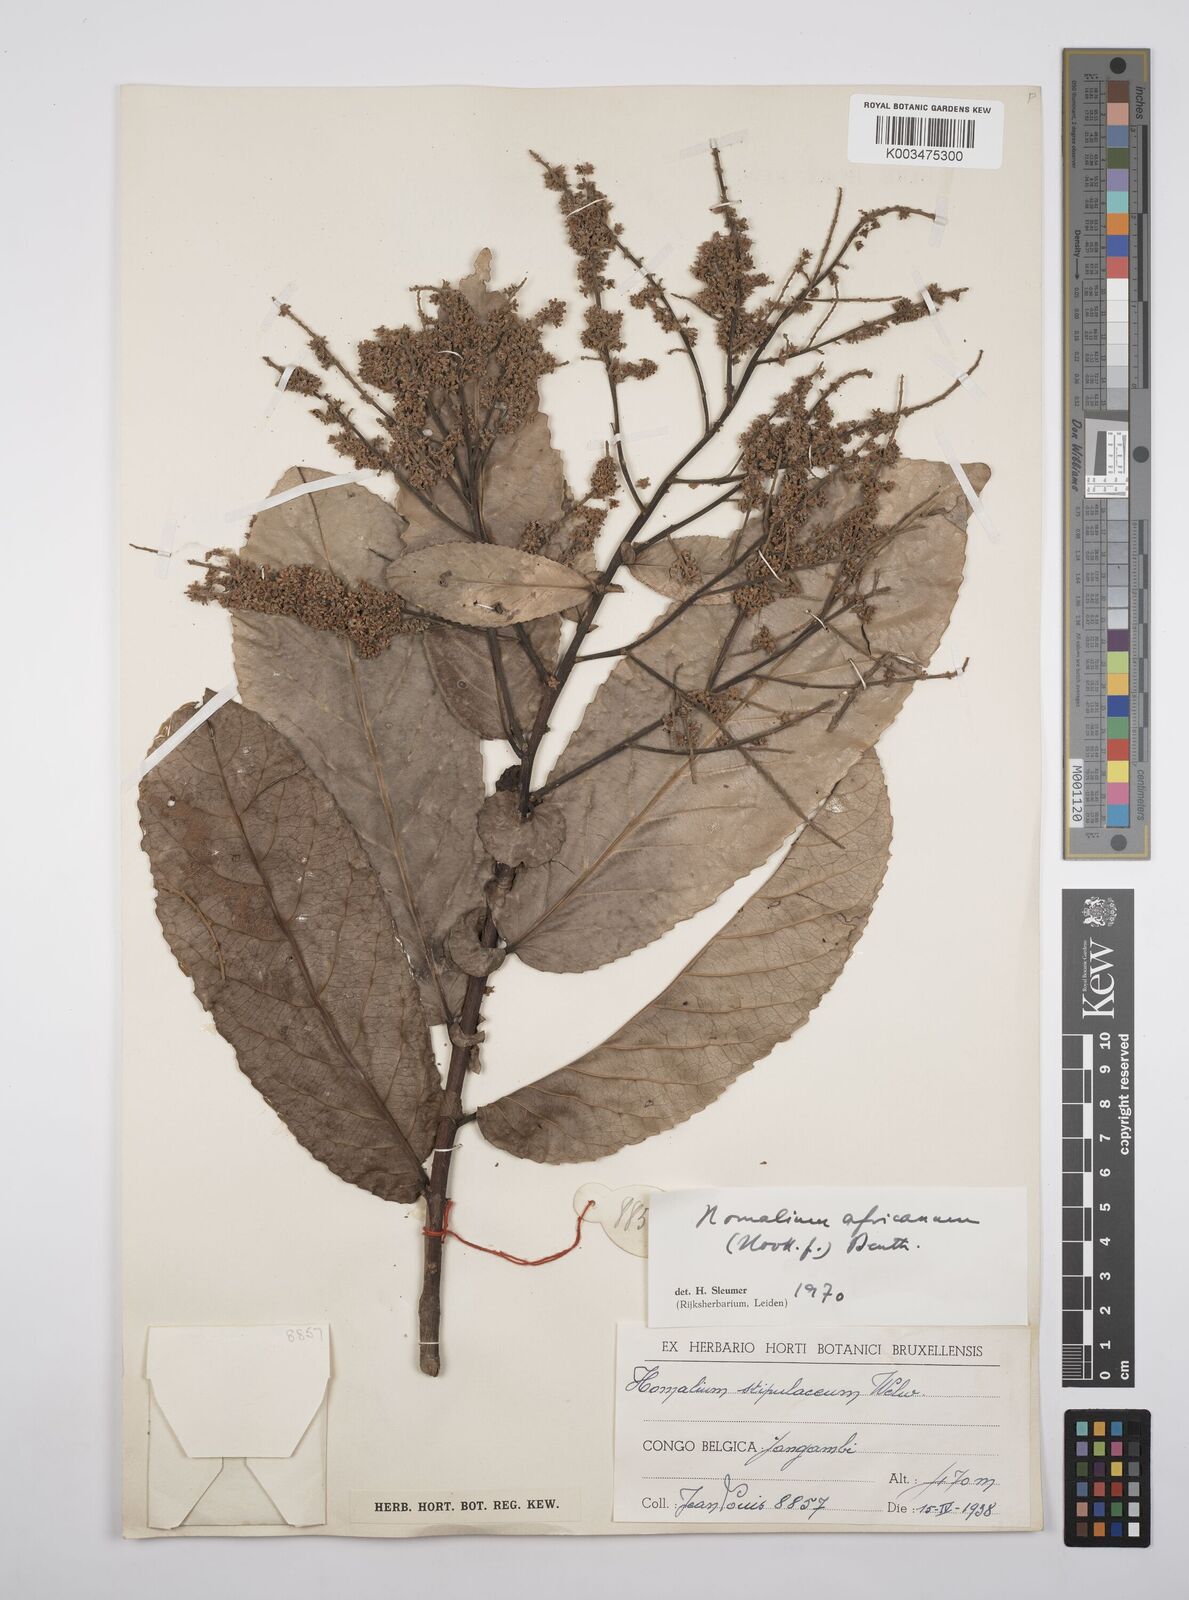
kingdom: Plantae
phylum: Tracheophyta
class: Magnoliopsida
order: Malpighiales
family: Salicaceae
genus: Homalium
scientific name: Homalium africanum
